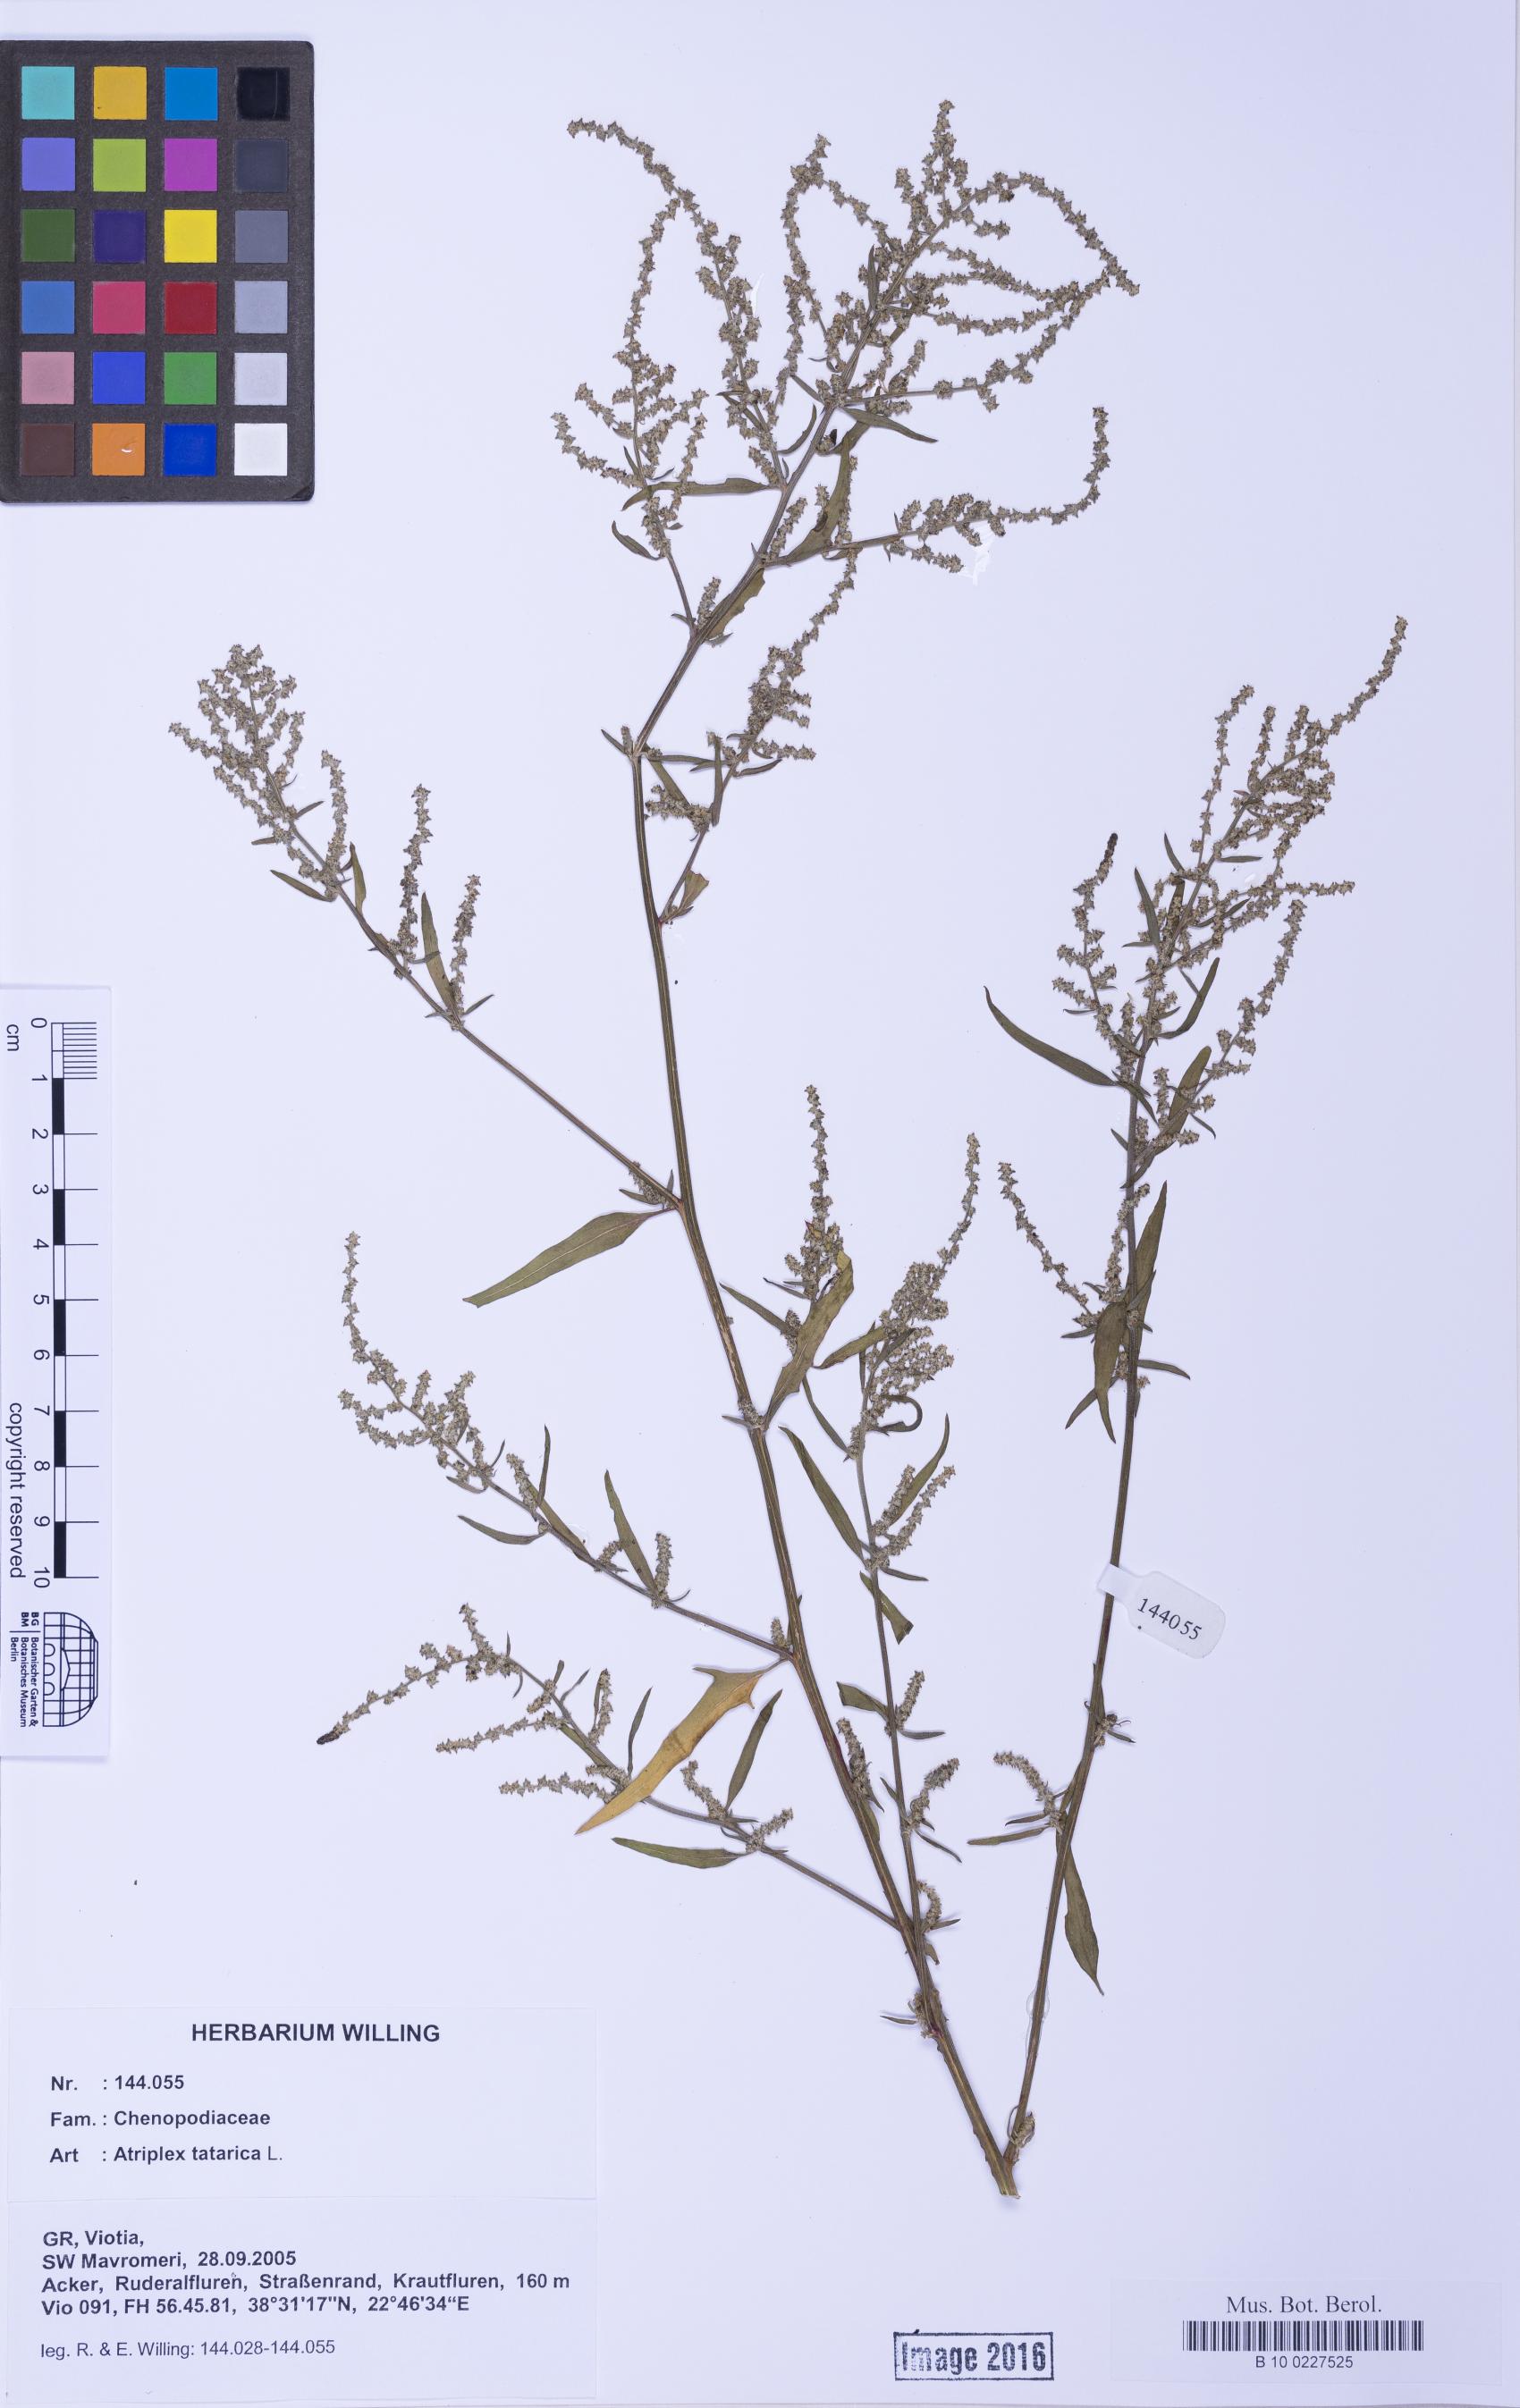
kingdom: Plantae
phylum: Tracheophyta
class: Magnoliopsida
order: Caryophyllales
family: Amaranthaceae
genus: Atriplex
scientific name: Atriplex prostrata
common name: Spear-leaved orache
